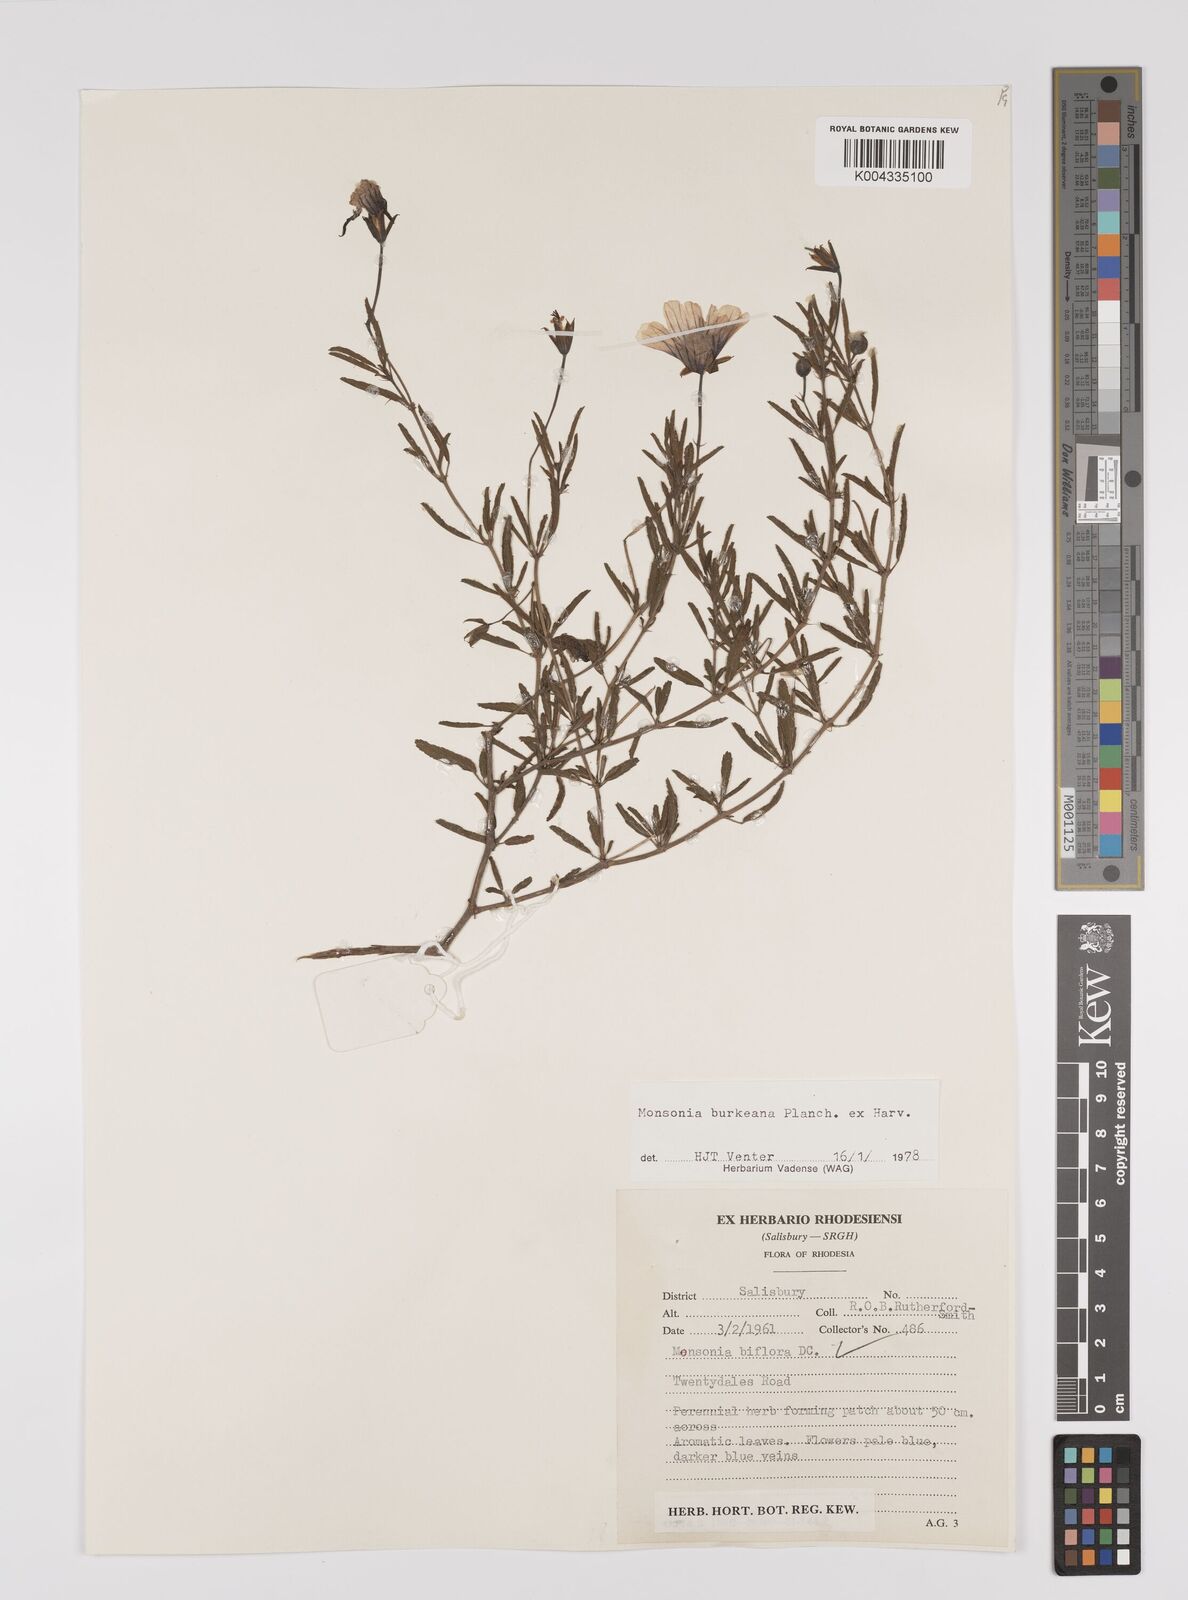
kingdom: Plantae
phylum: Tracheophyta
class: Magnoliopsida
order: Geraniales
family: Geraniaceae
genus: Monsonia
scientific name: Monsonia biflora
